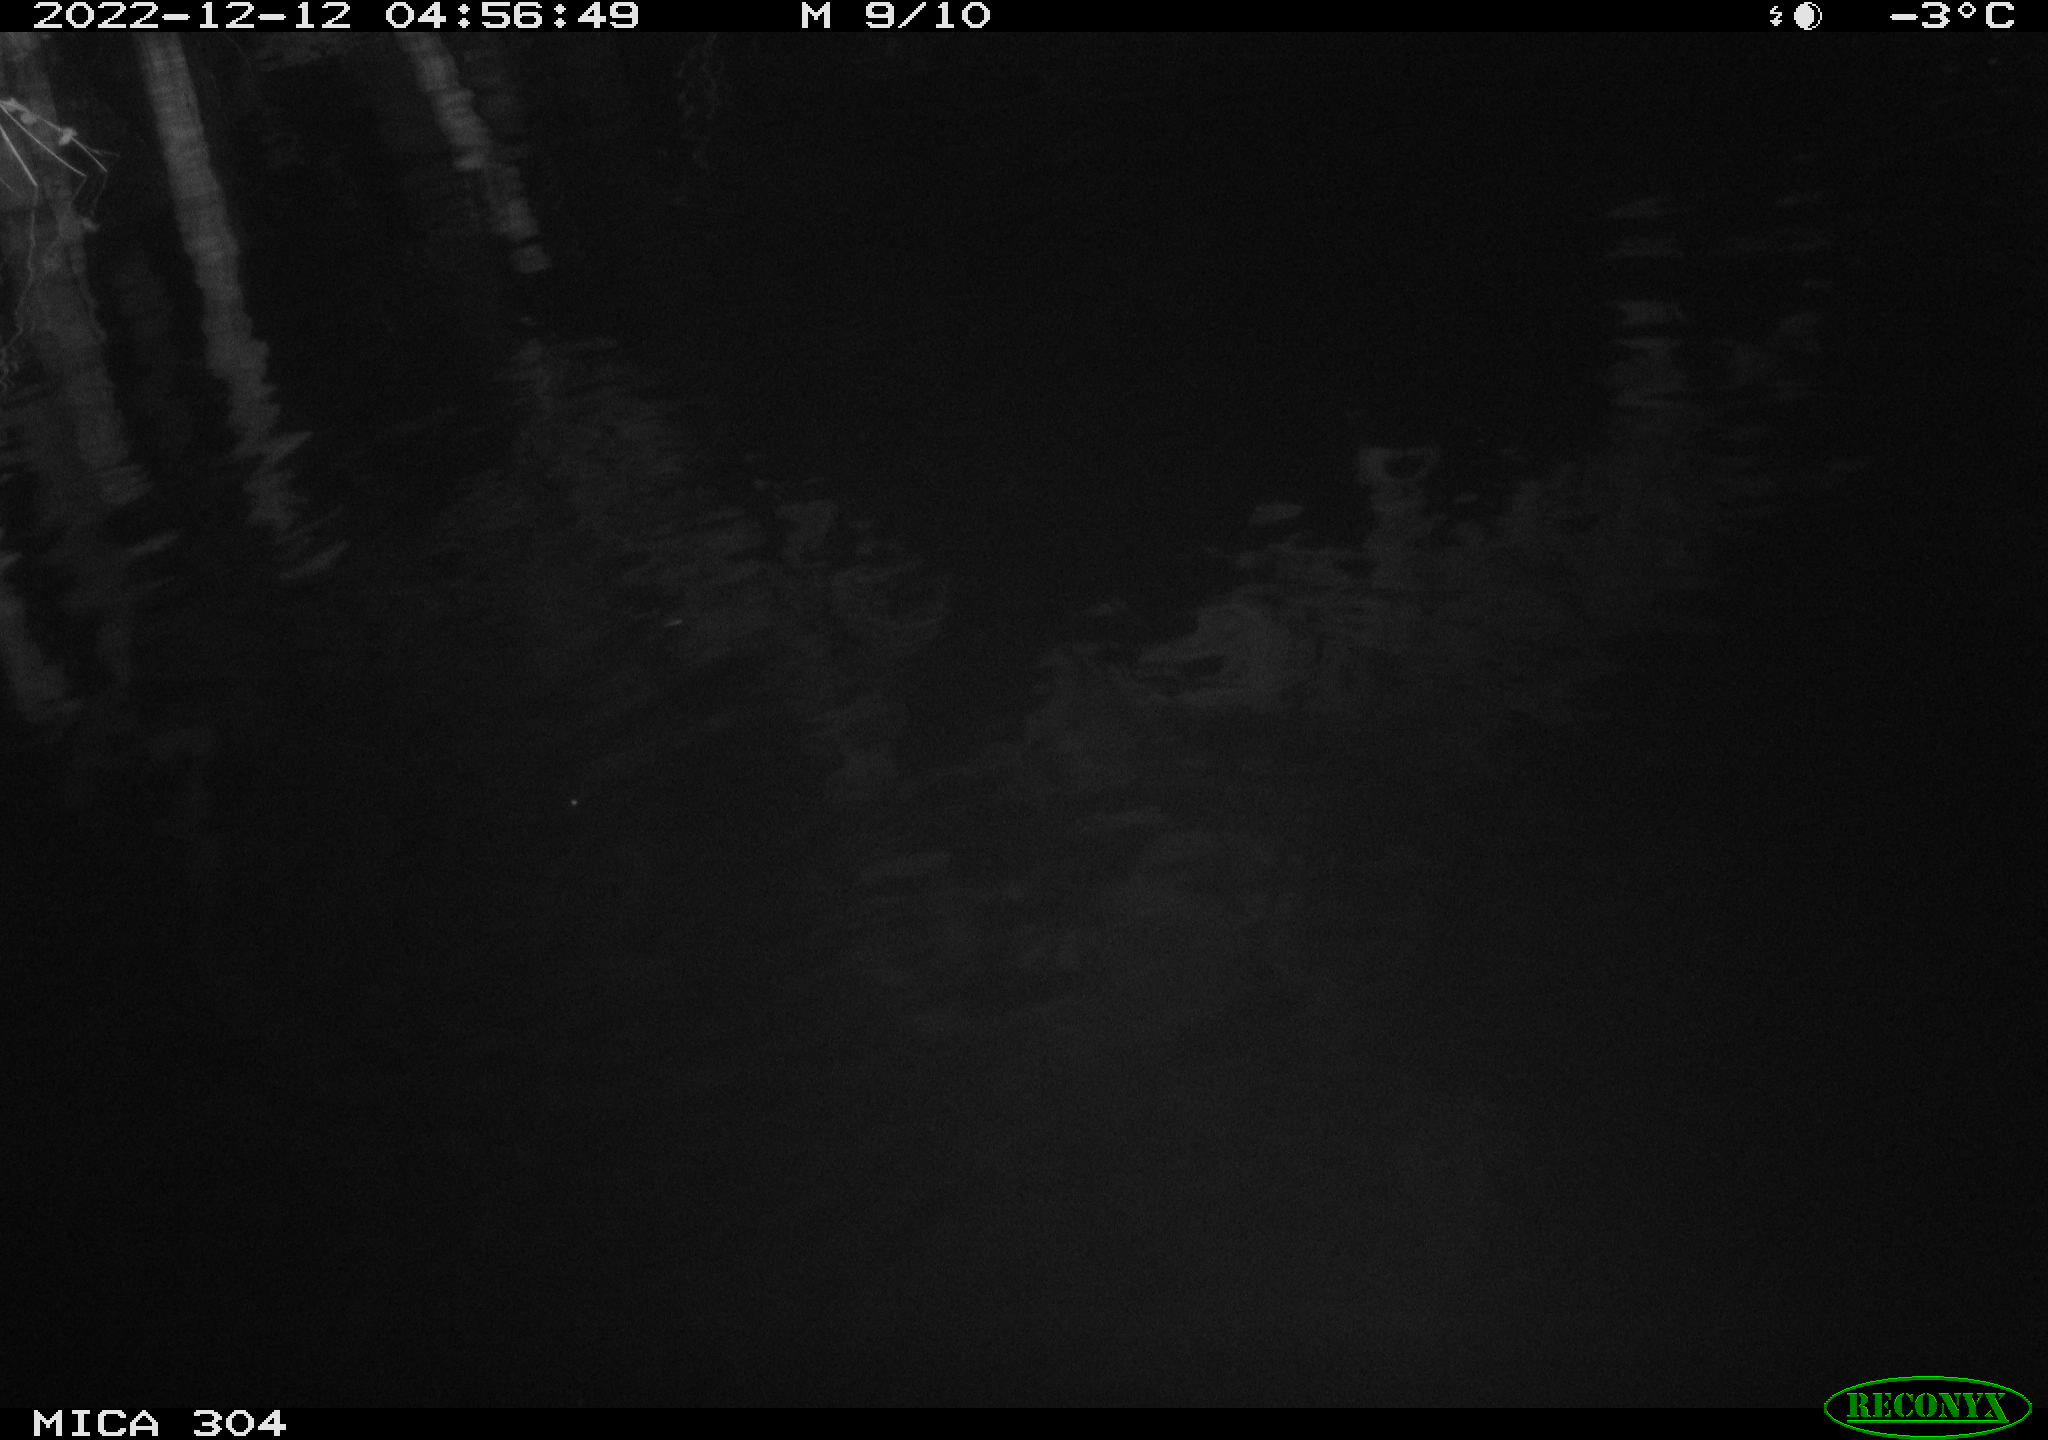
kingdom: Animalia
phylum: Chordata
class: Aves
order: Anseriformes
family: Anatidae
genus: Anas
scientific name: Anas
